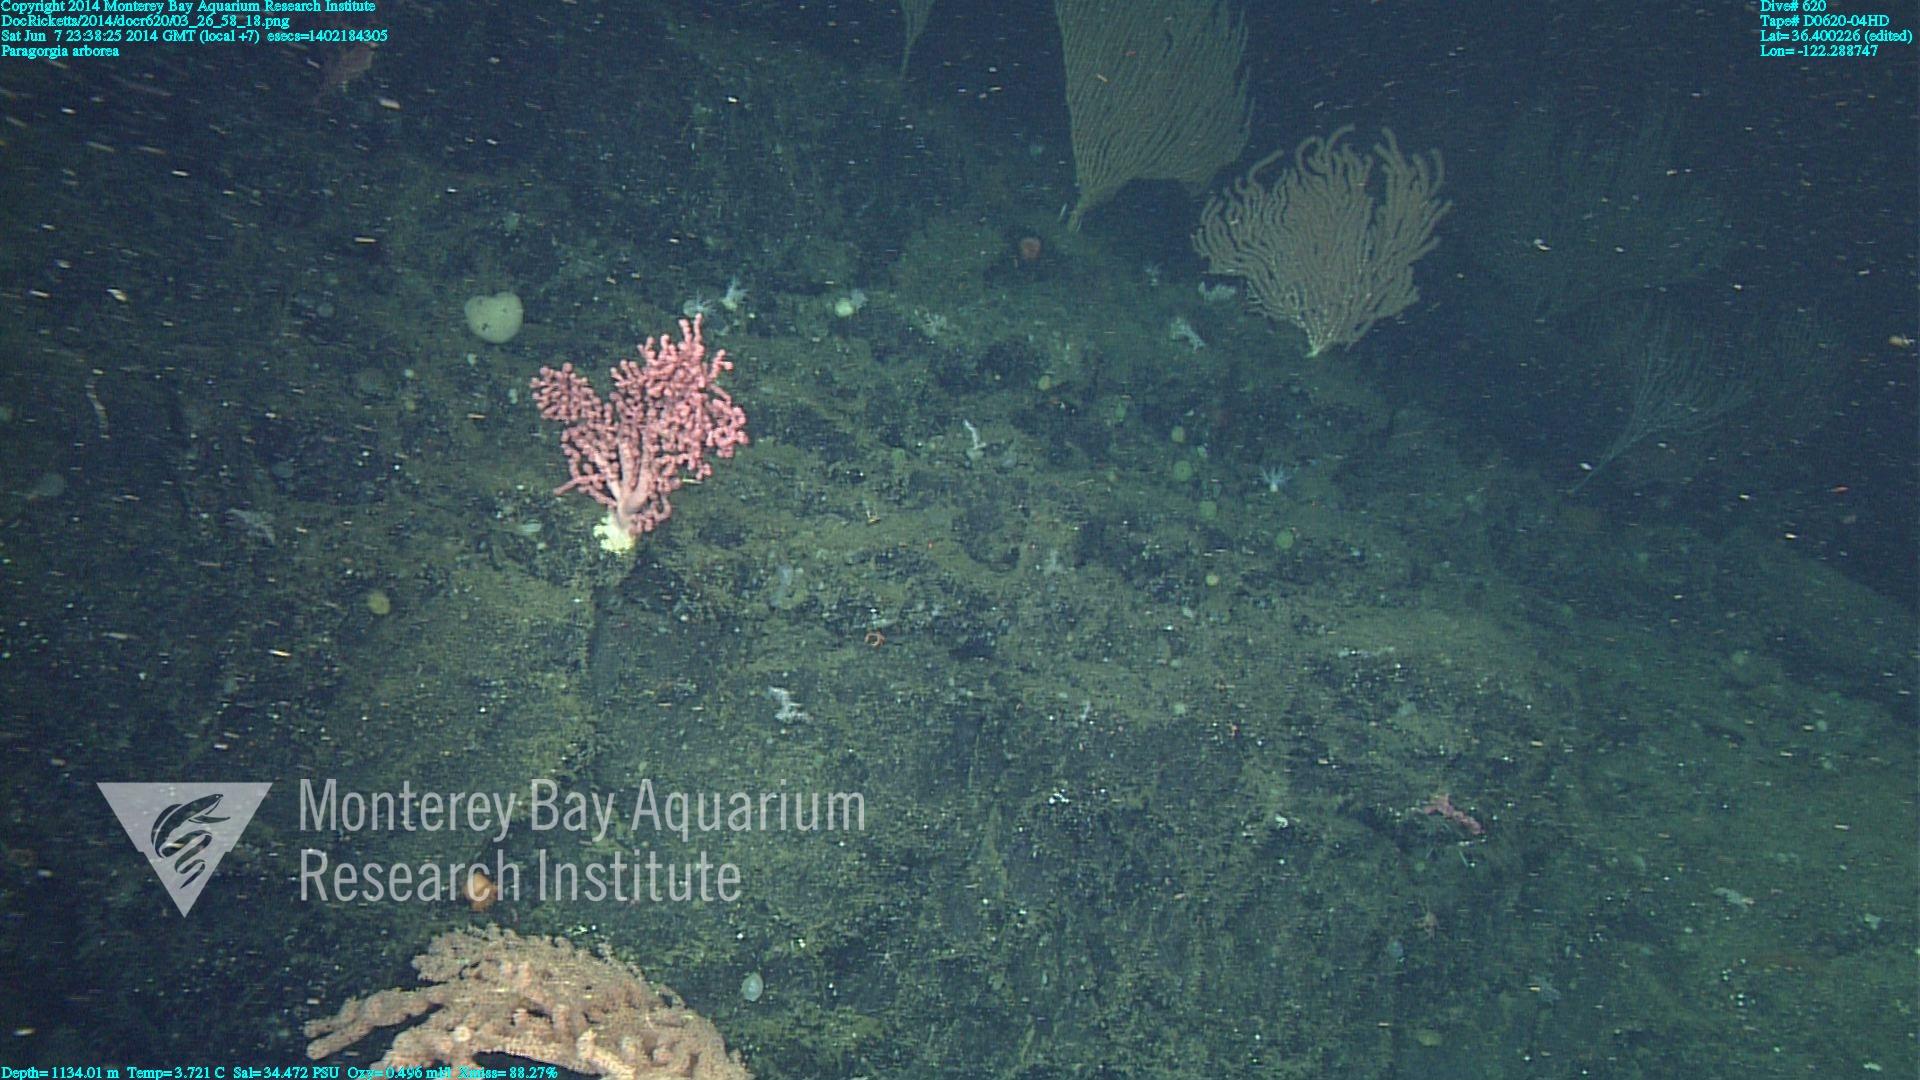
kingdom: Animalia
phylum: Cnidaria
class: Anthozoa
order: Scleralcyonacea
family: Coralliidae
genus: Paragorgia
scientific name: Paragorgia arborea
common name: Bubble gum coral
